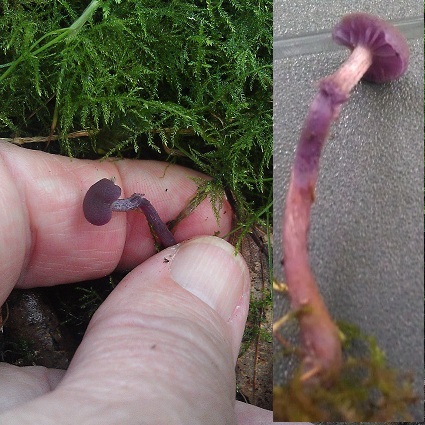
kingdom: Fungi
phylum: Basidiomycota
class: Agaricomycetes
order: Agaricales
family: Hydnangiaceae
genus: Laccaria
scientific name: Laccaria amethystina
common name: violet ametysthat
